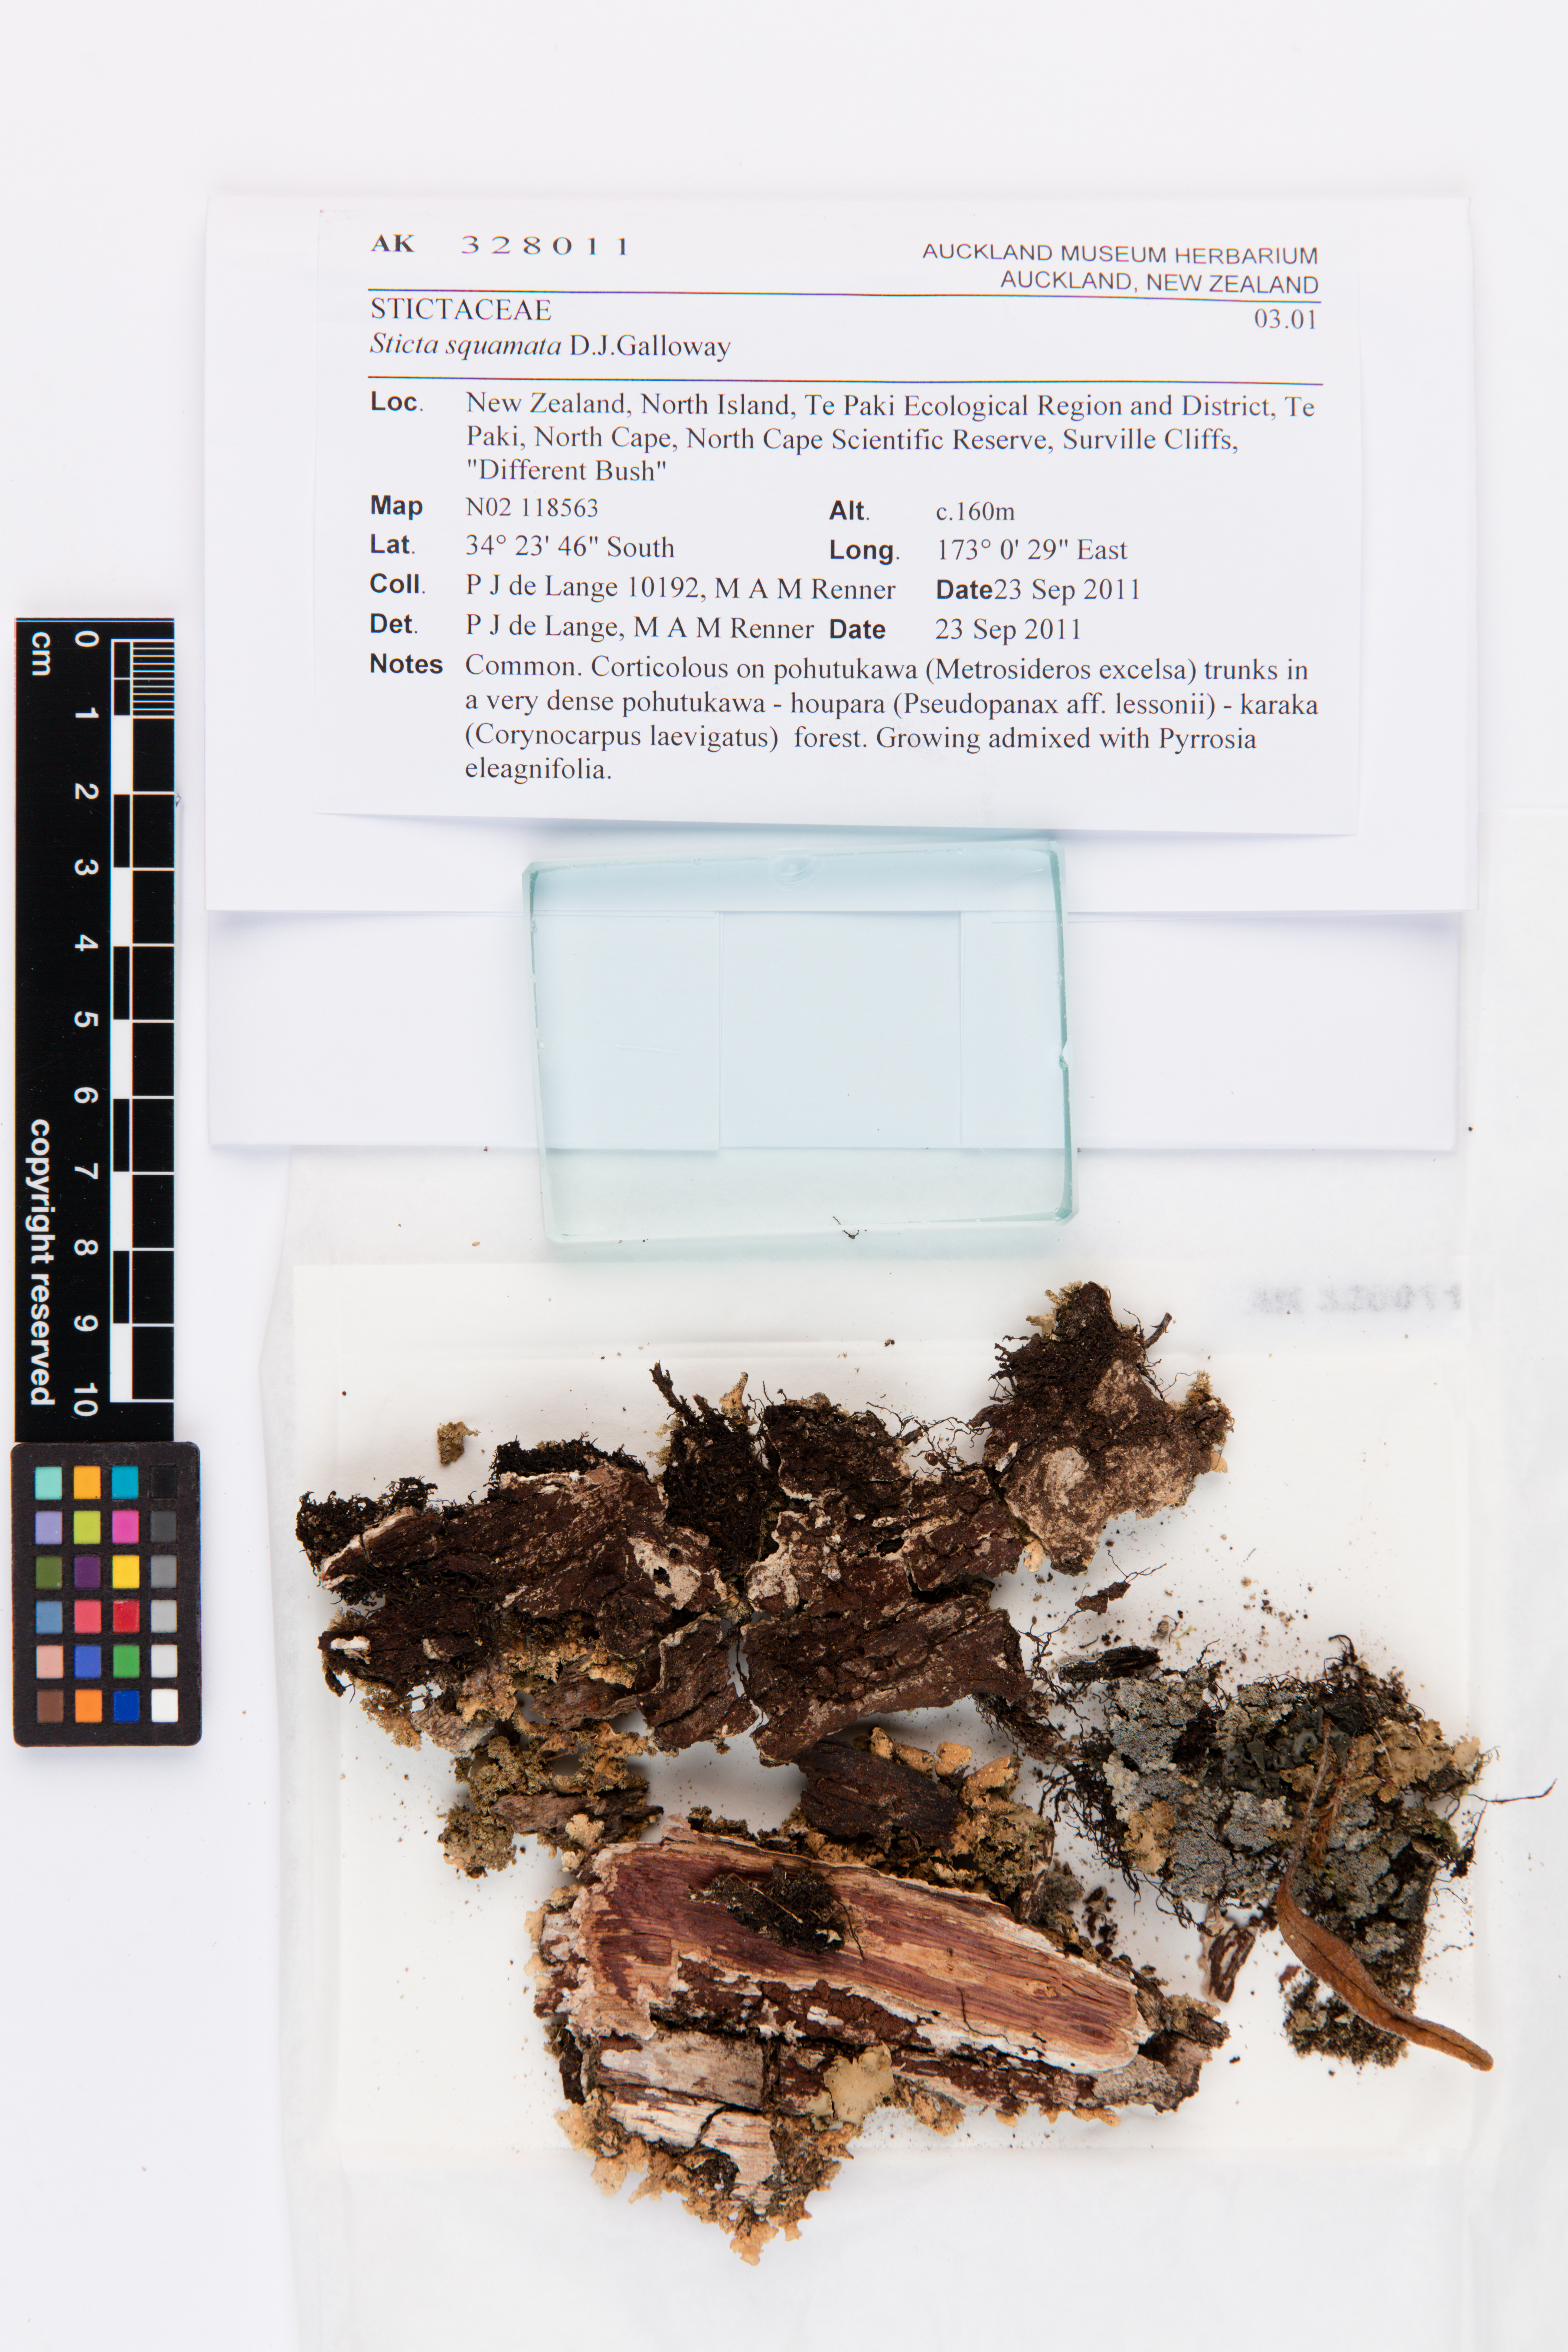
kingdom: Fungi
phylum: Ascomycota
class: Lecanoromycetes
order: Peltigerales
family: Lobariaceae
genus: Sticta
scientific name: Sticta squamata
